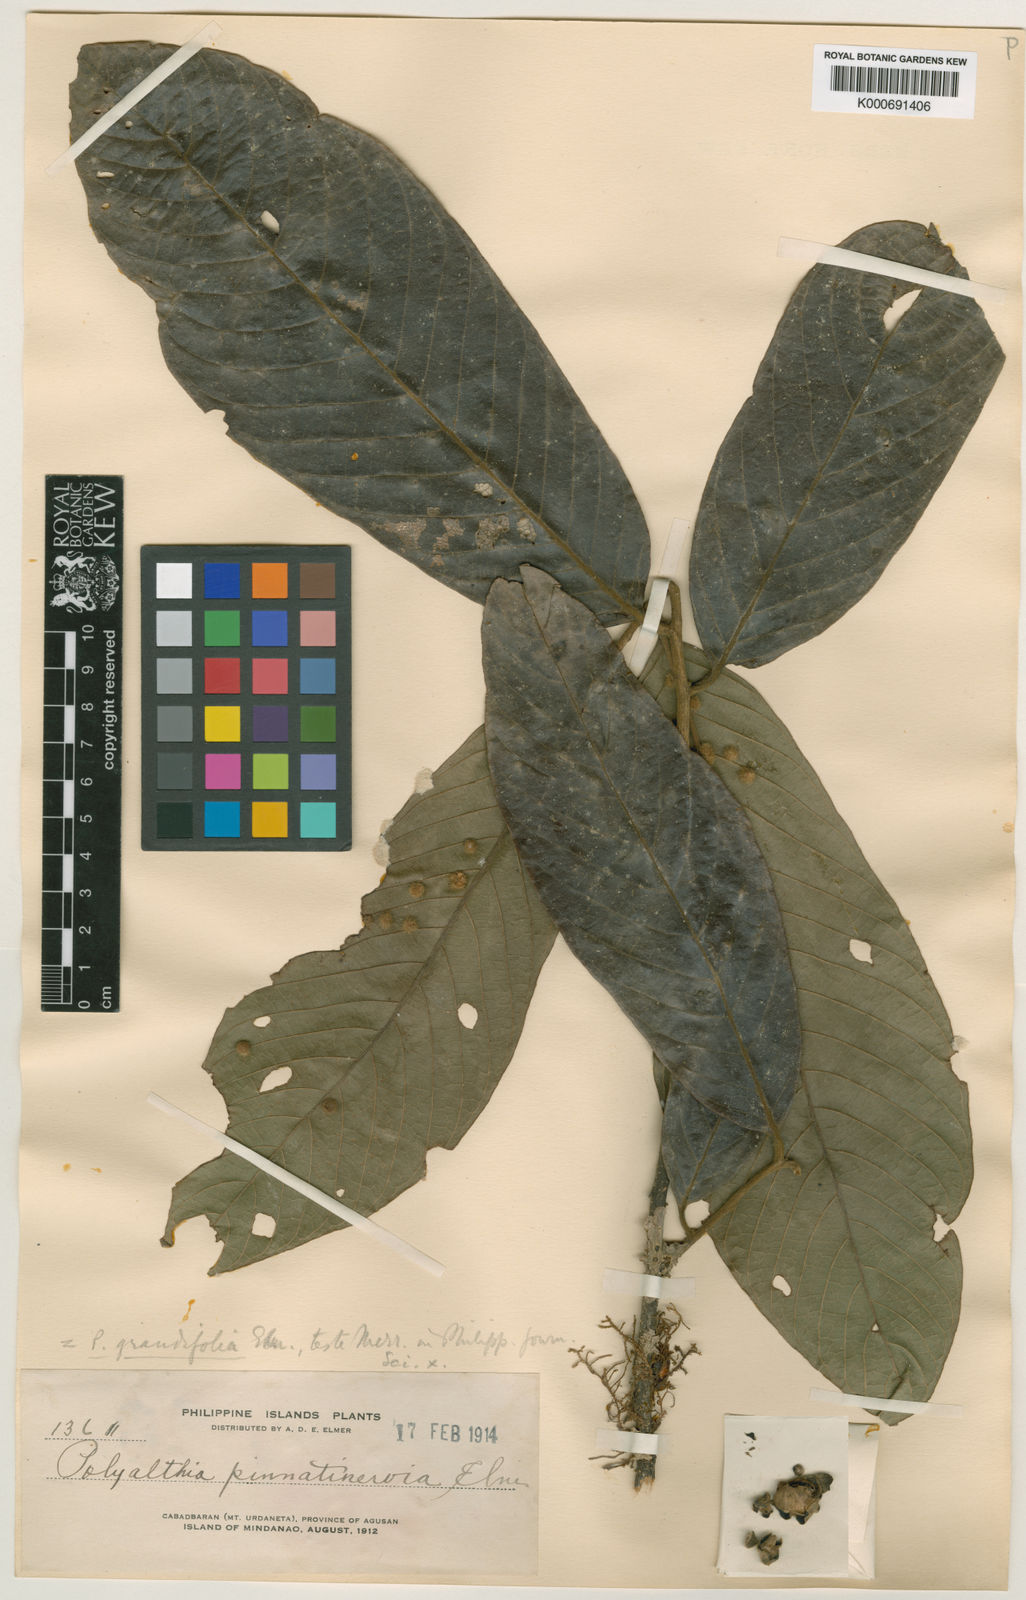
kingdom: Plantae
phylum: Tracheophyta
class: Magnoliopsida
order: Magnoliales
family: Annonaceae
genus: Enicosanthum
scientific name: Enicosanthum grandifolium
